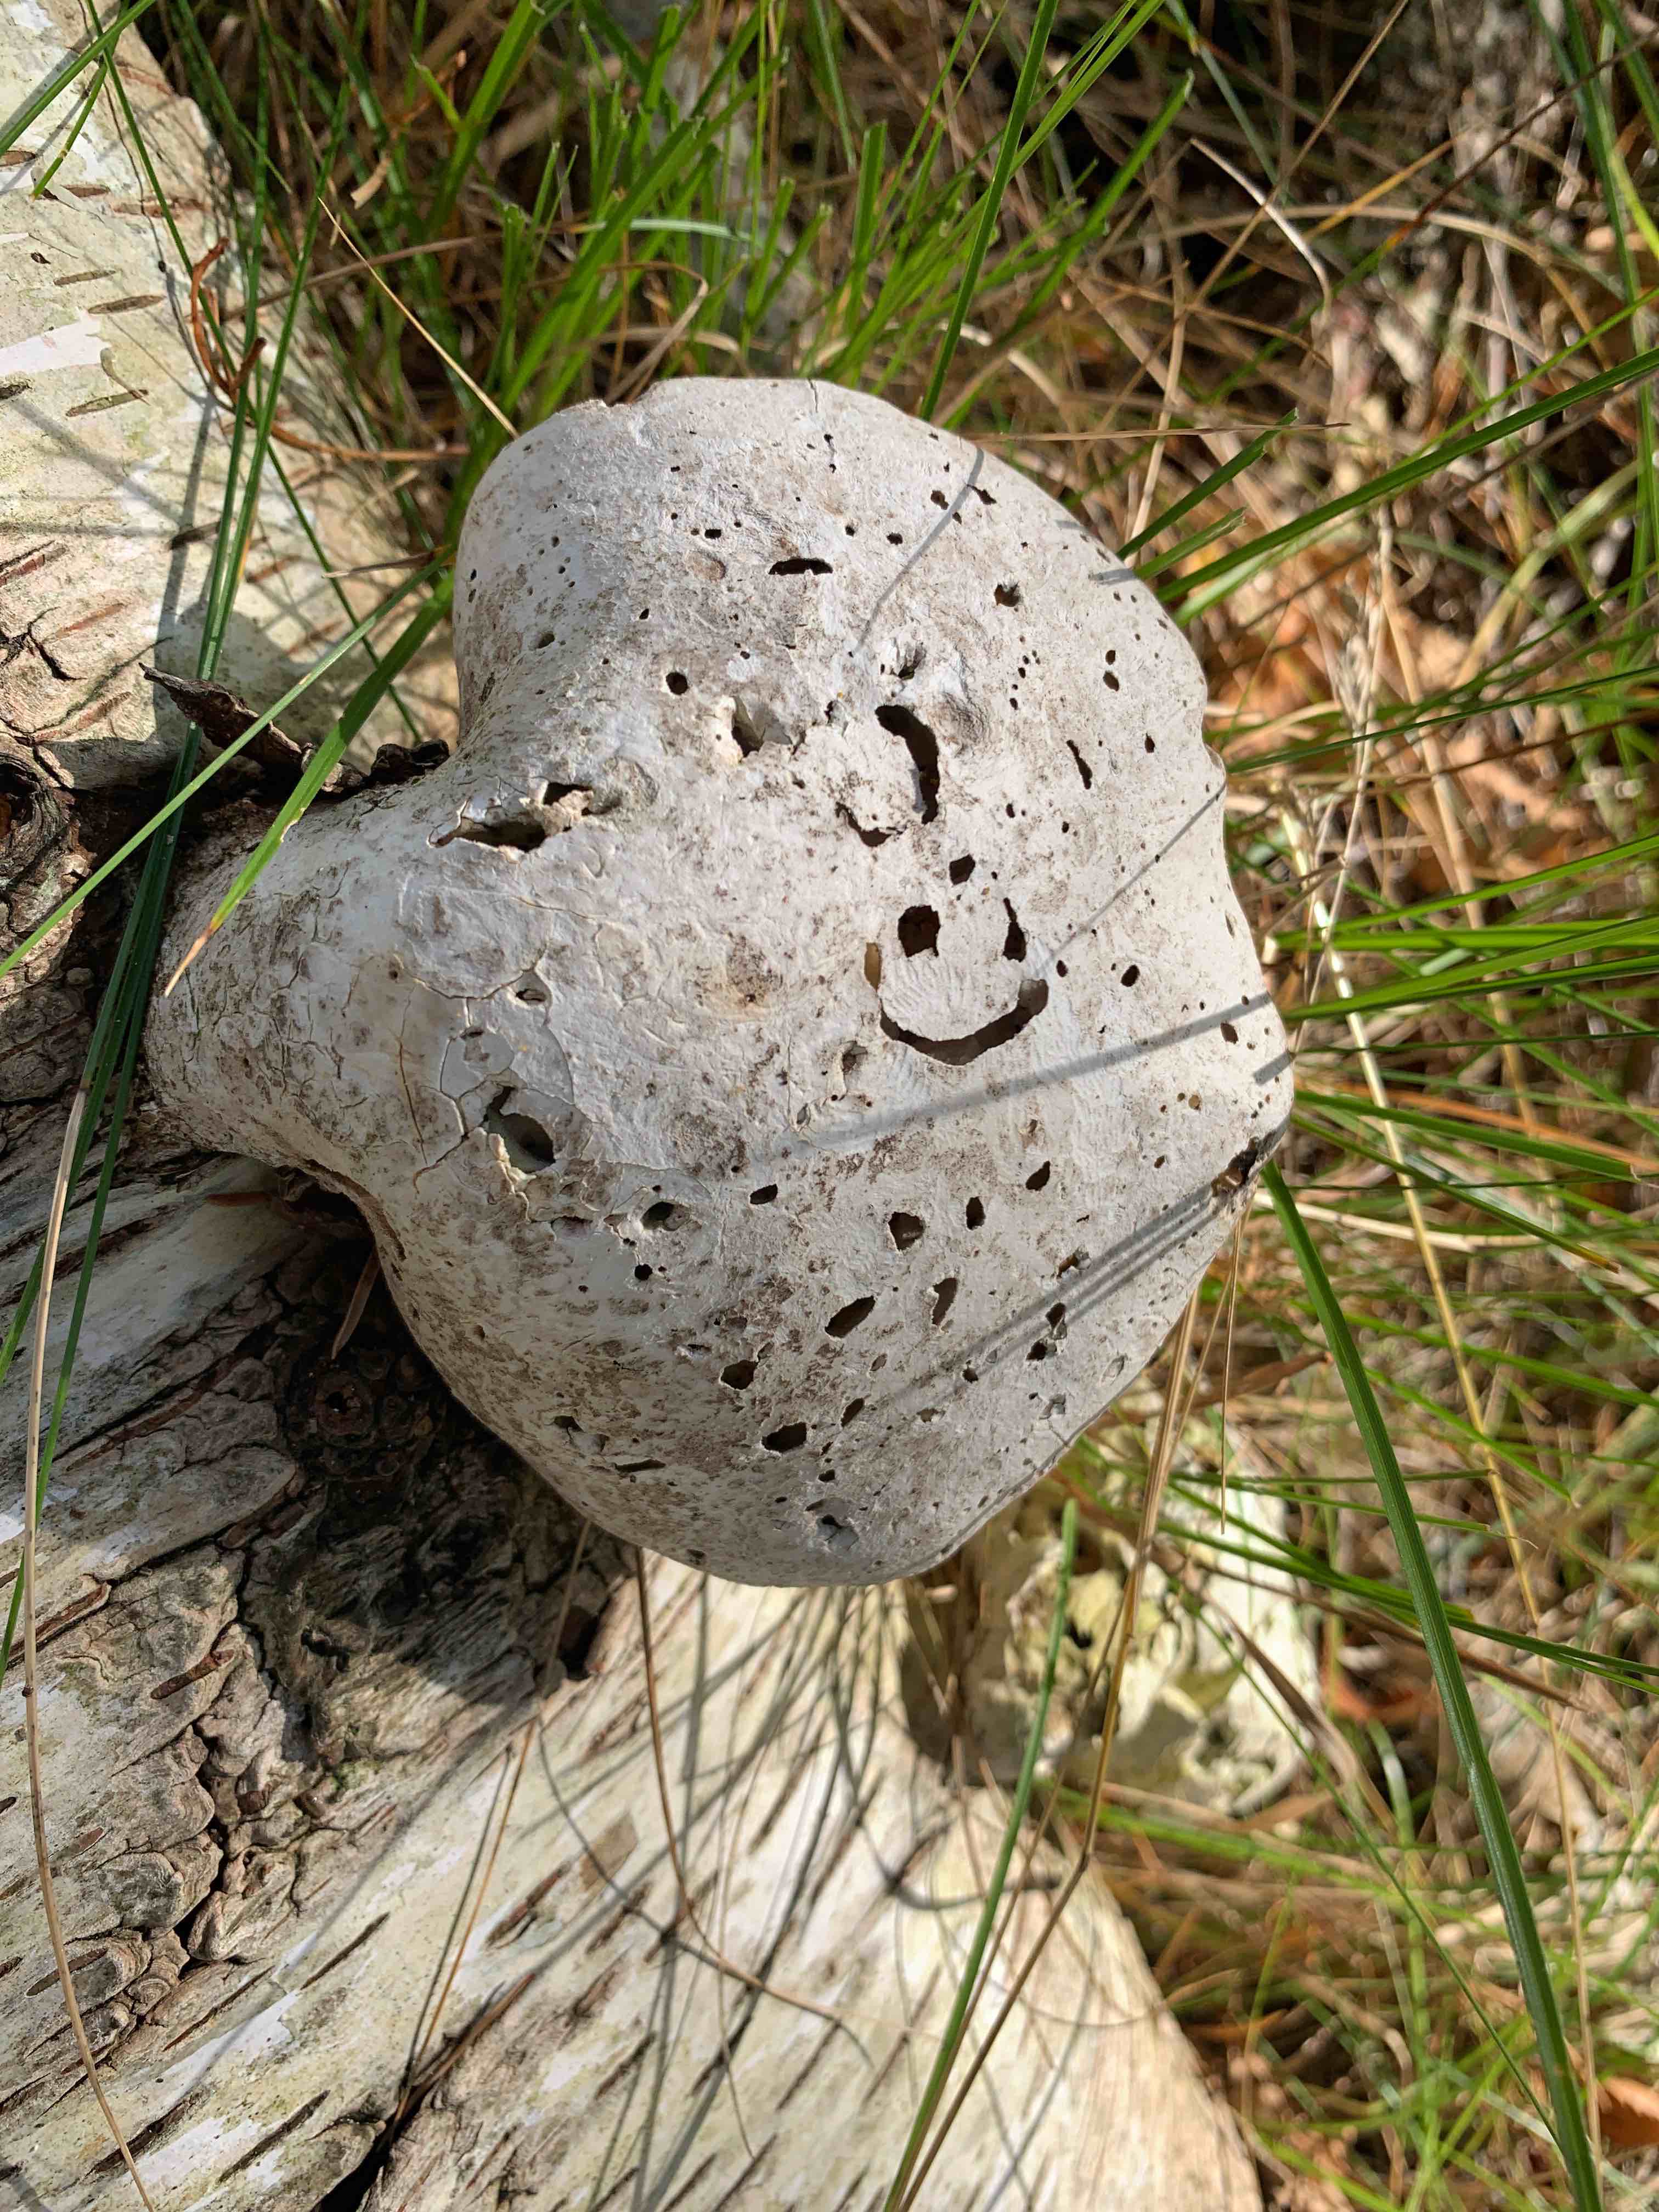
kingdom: Fungi
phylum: Basidiomycota
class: Agaricomycetes
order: Polyporales
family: Fomitopsidaceae
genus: Fomitopsis
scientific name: Fomitopsis betulina
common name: birkeporesvamp
